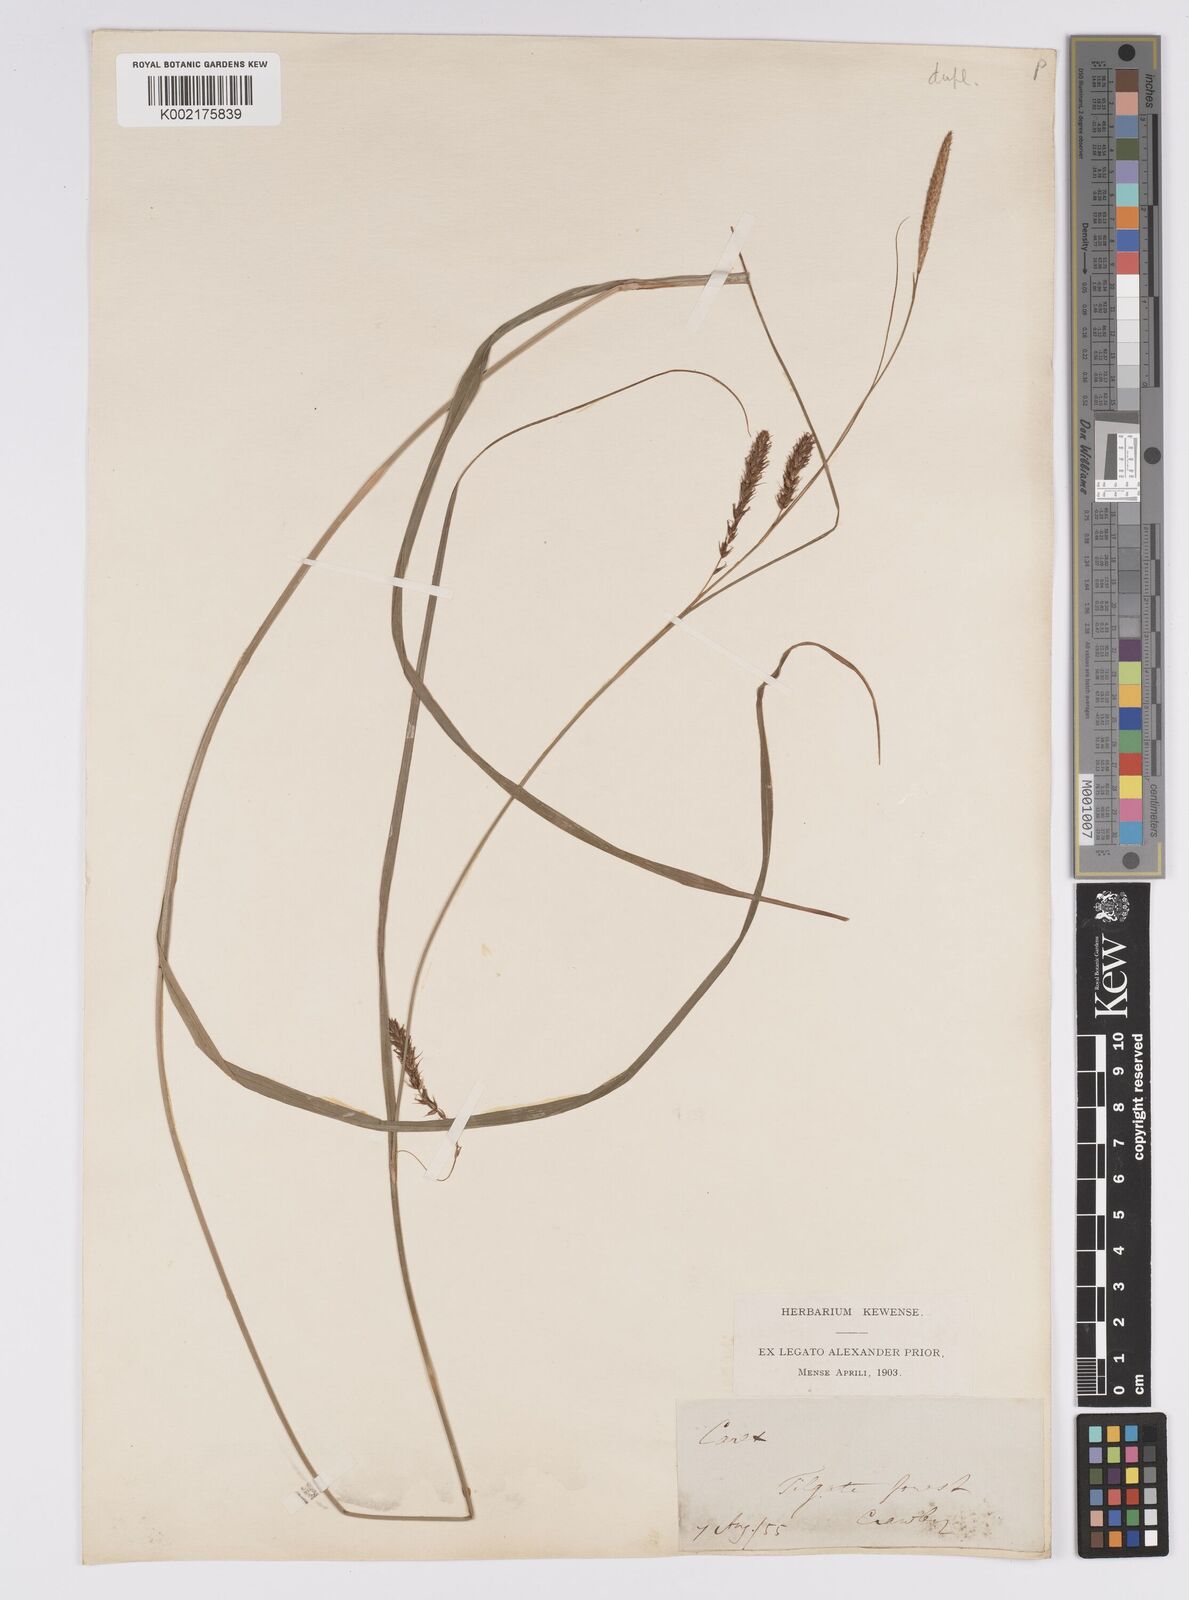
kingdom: Plantae
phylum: Tracheophyta
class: Liliopsida
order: Poales
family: Cyperaceae
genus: Carex
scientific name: Carex laevigata
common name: Smooth-stalked sedge
